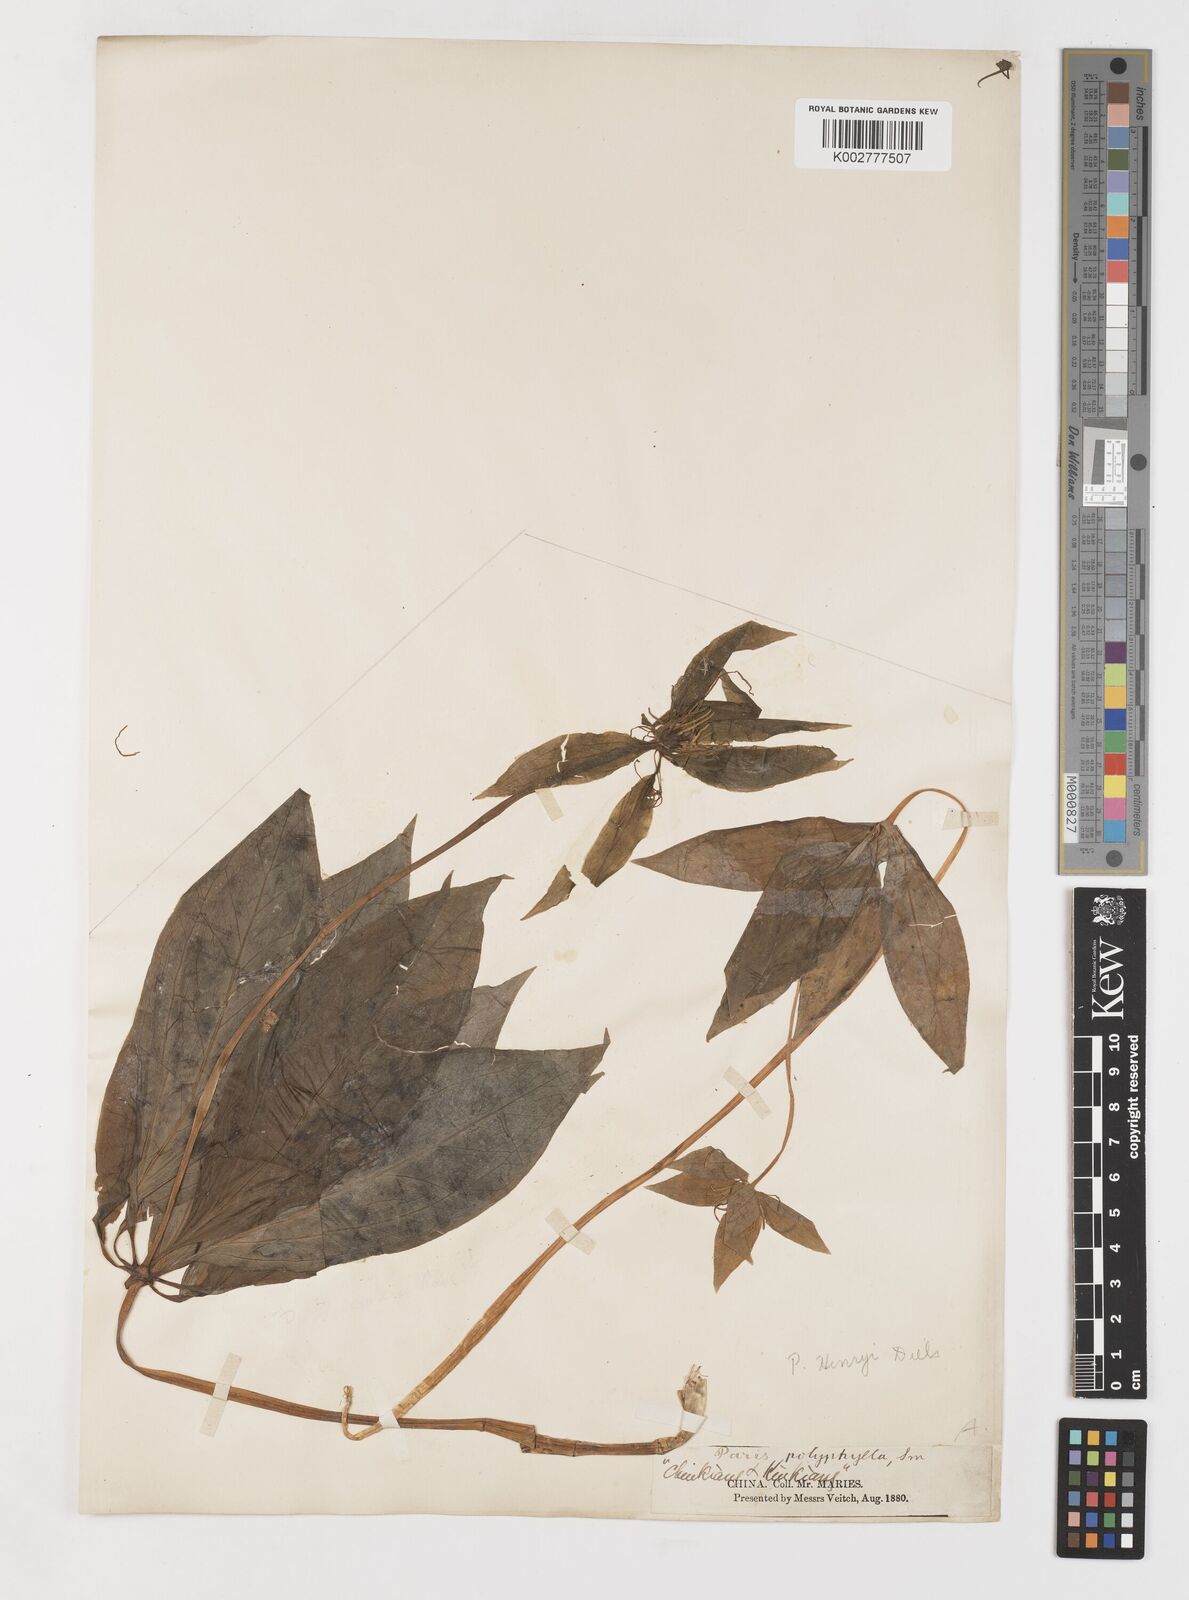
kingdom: Plantae
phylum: Tracheophyta
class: Liliopsida
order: Liliales
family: Melanthiaceae
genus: Paris
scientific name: Paris delavayi
